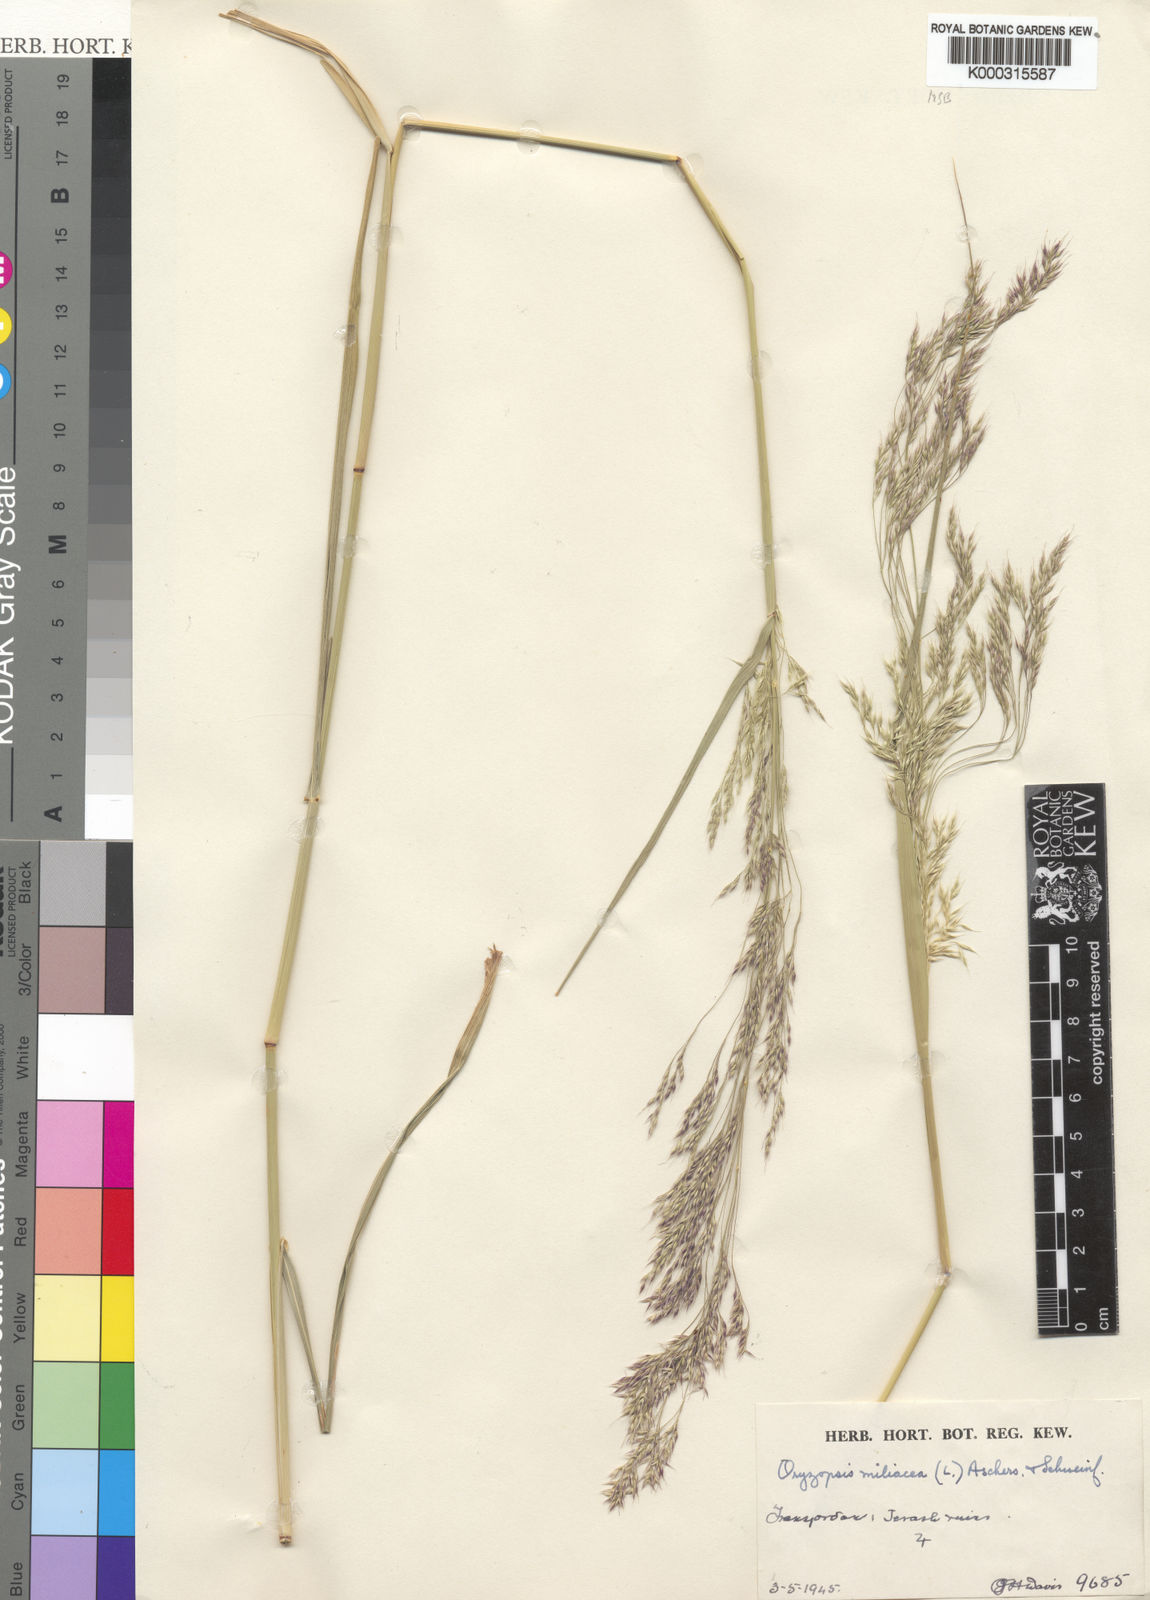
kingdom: Plantae
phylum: Tracheophyta
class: Liliopsida
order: Poales
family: Poaceae
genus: Oloptum
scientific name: Oloptum miliaceum
